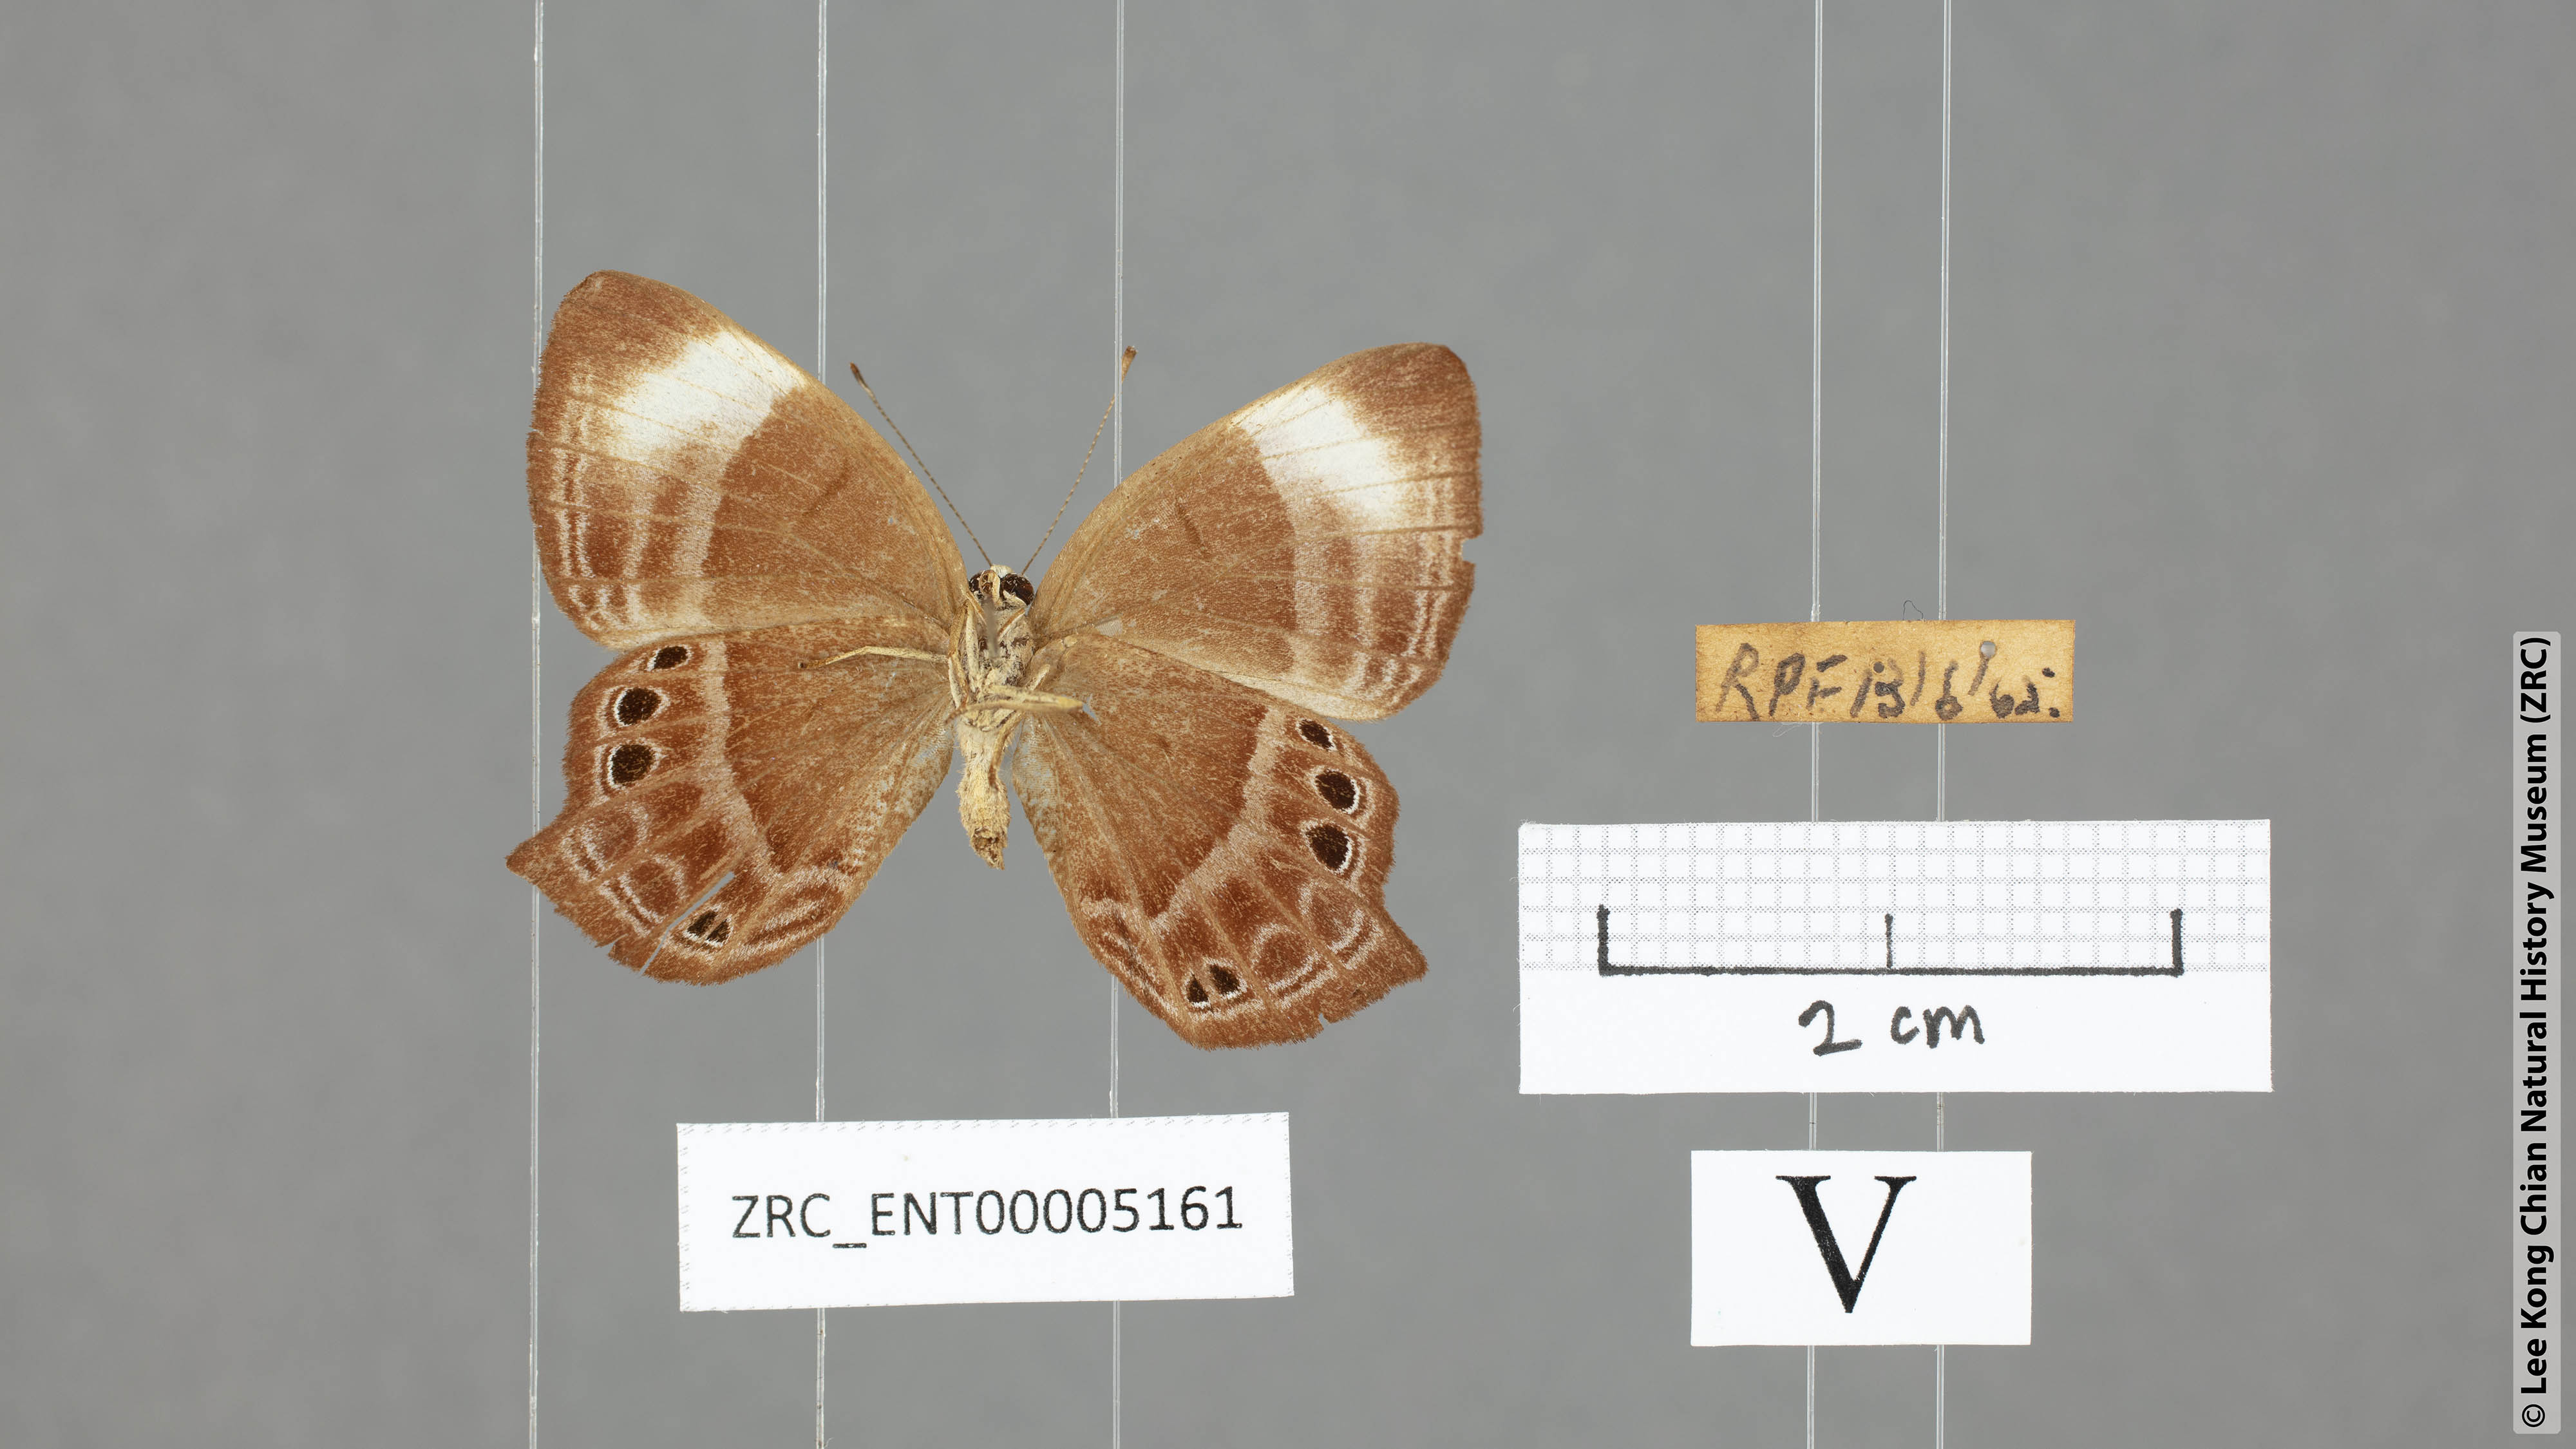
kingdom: Animalia
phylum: Arthropoda
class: Insecta
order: Lepidoptera
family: Lycaenidae
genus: Abisara
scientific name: Abisara kausambi
